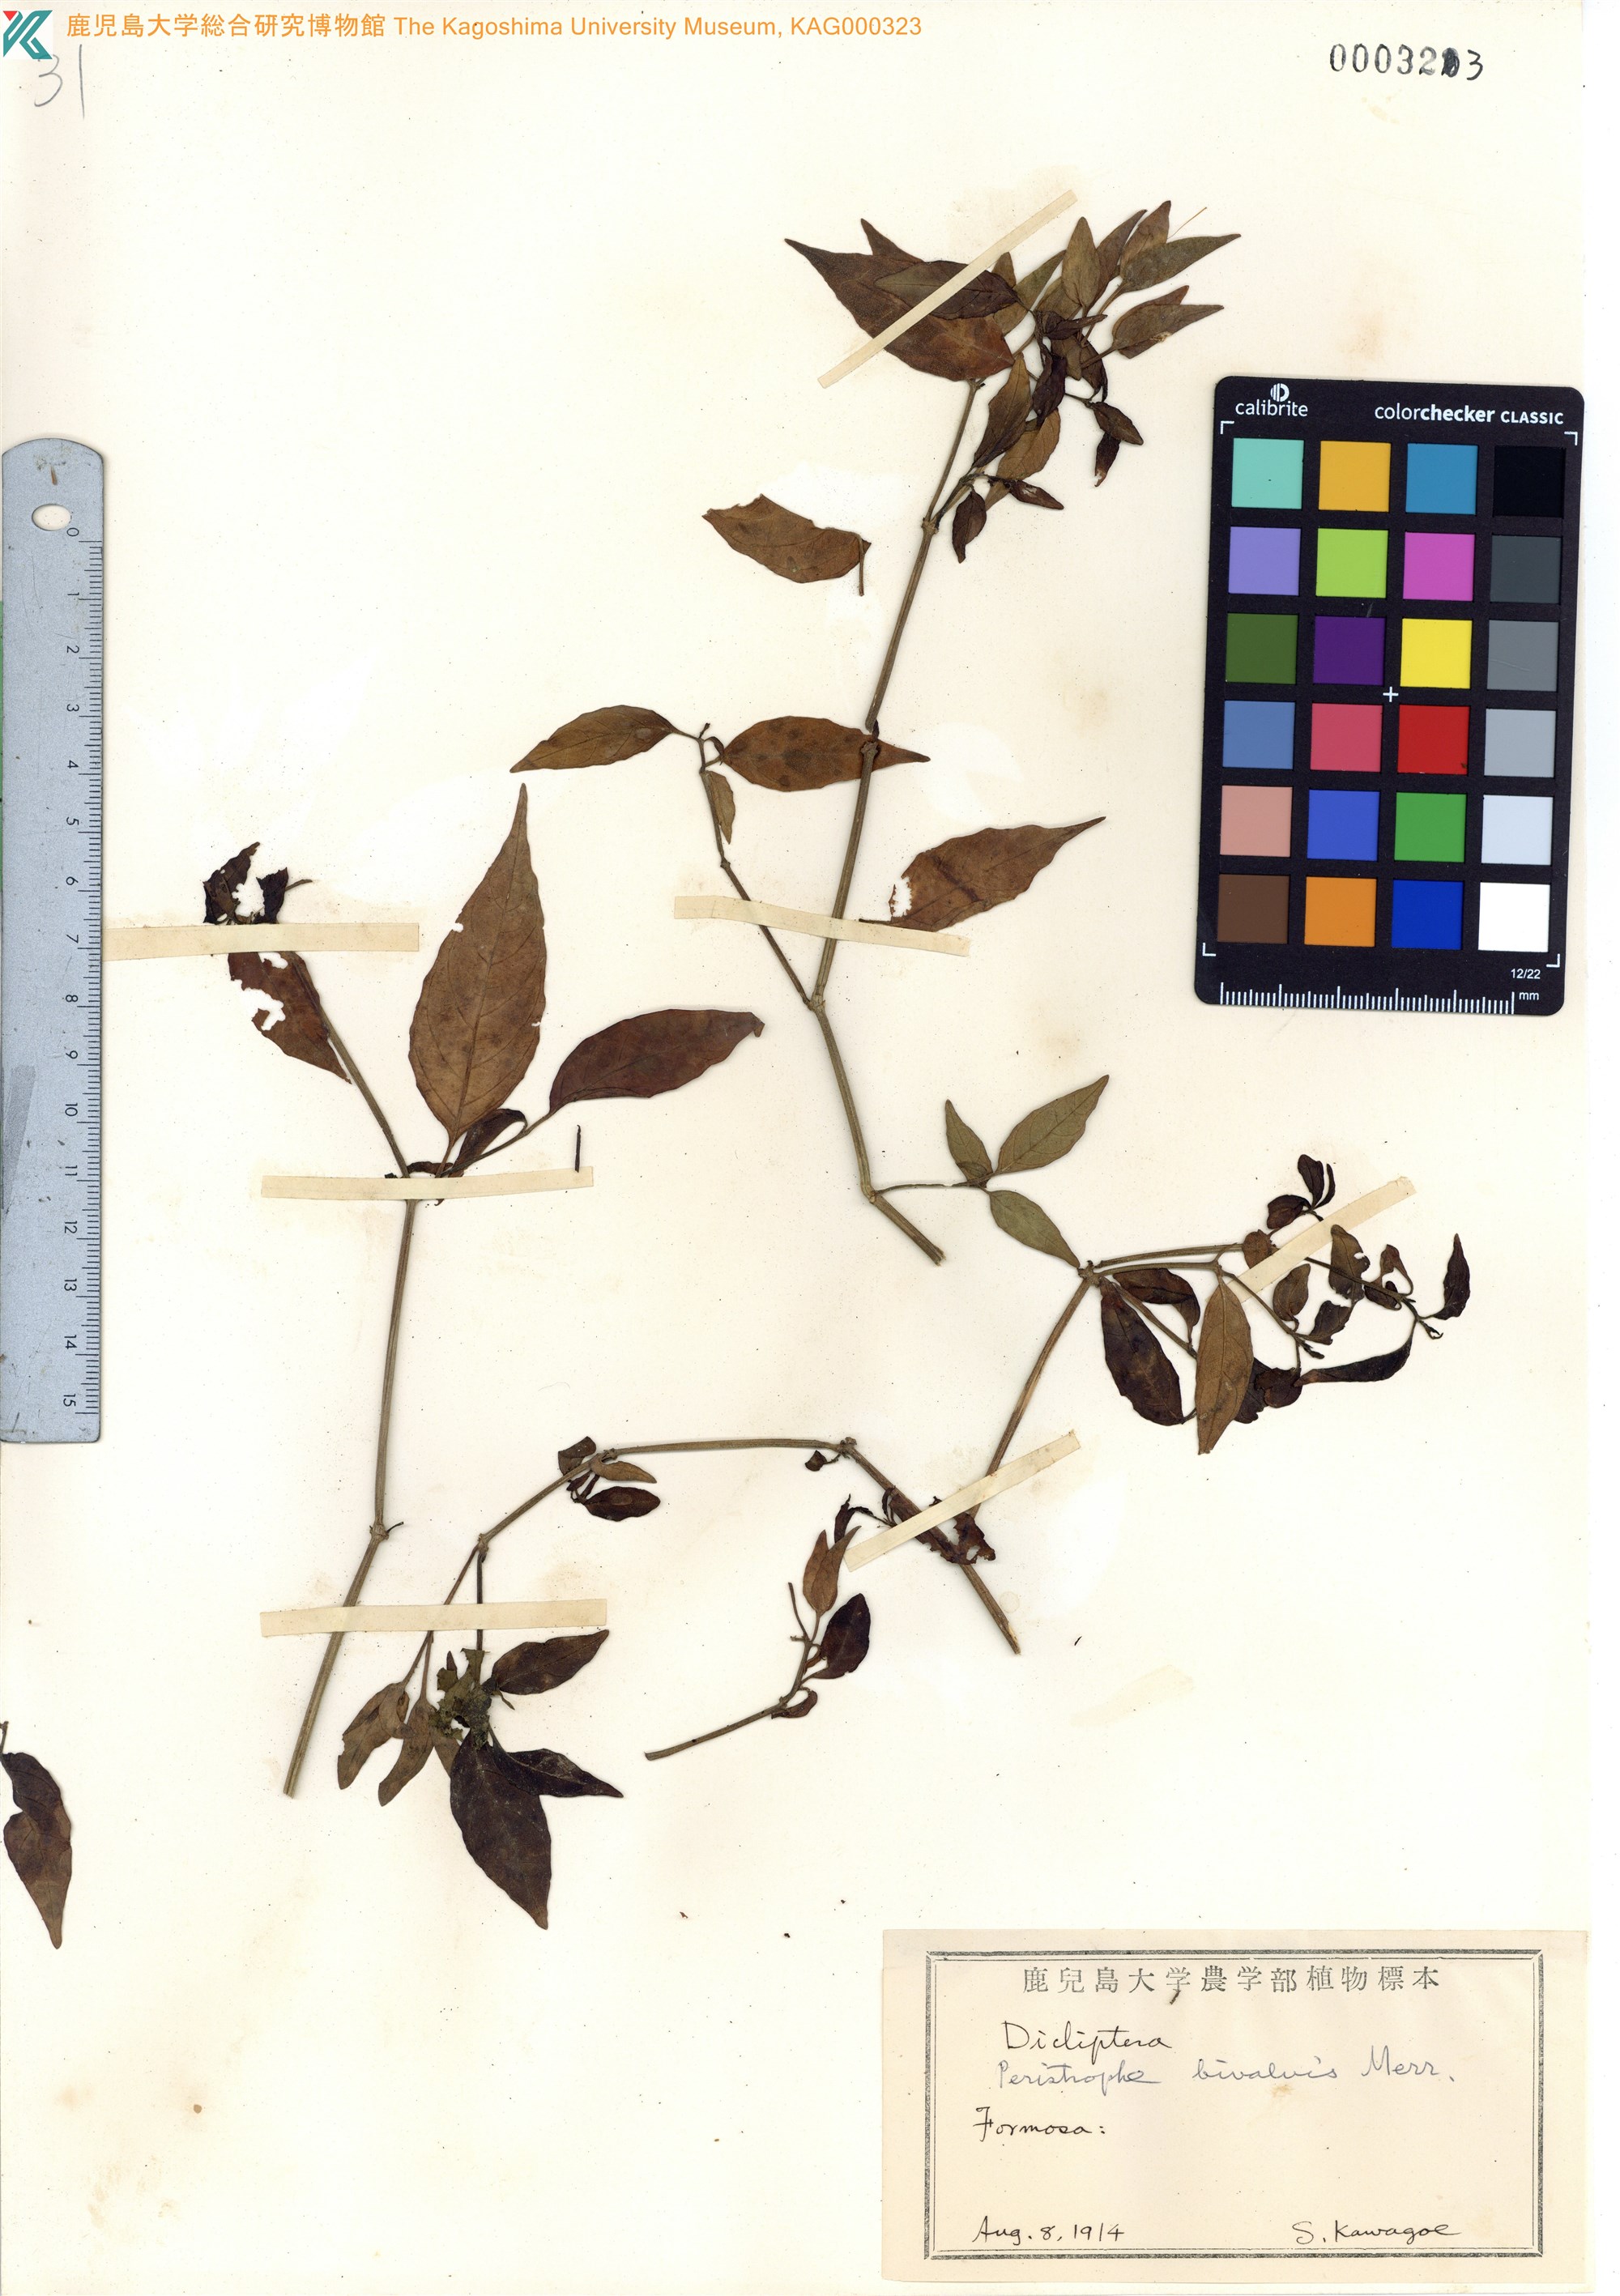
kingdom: Plantae
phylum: Tracheophyta
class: Magnoliopsida
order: Lamiales
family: Acanthaceae
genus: Dicliptera
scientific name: Dicliptera tinctoria
